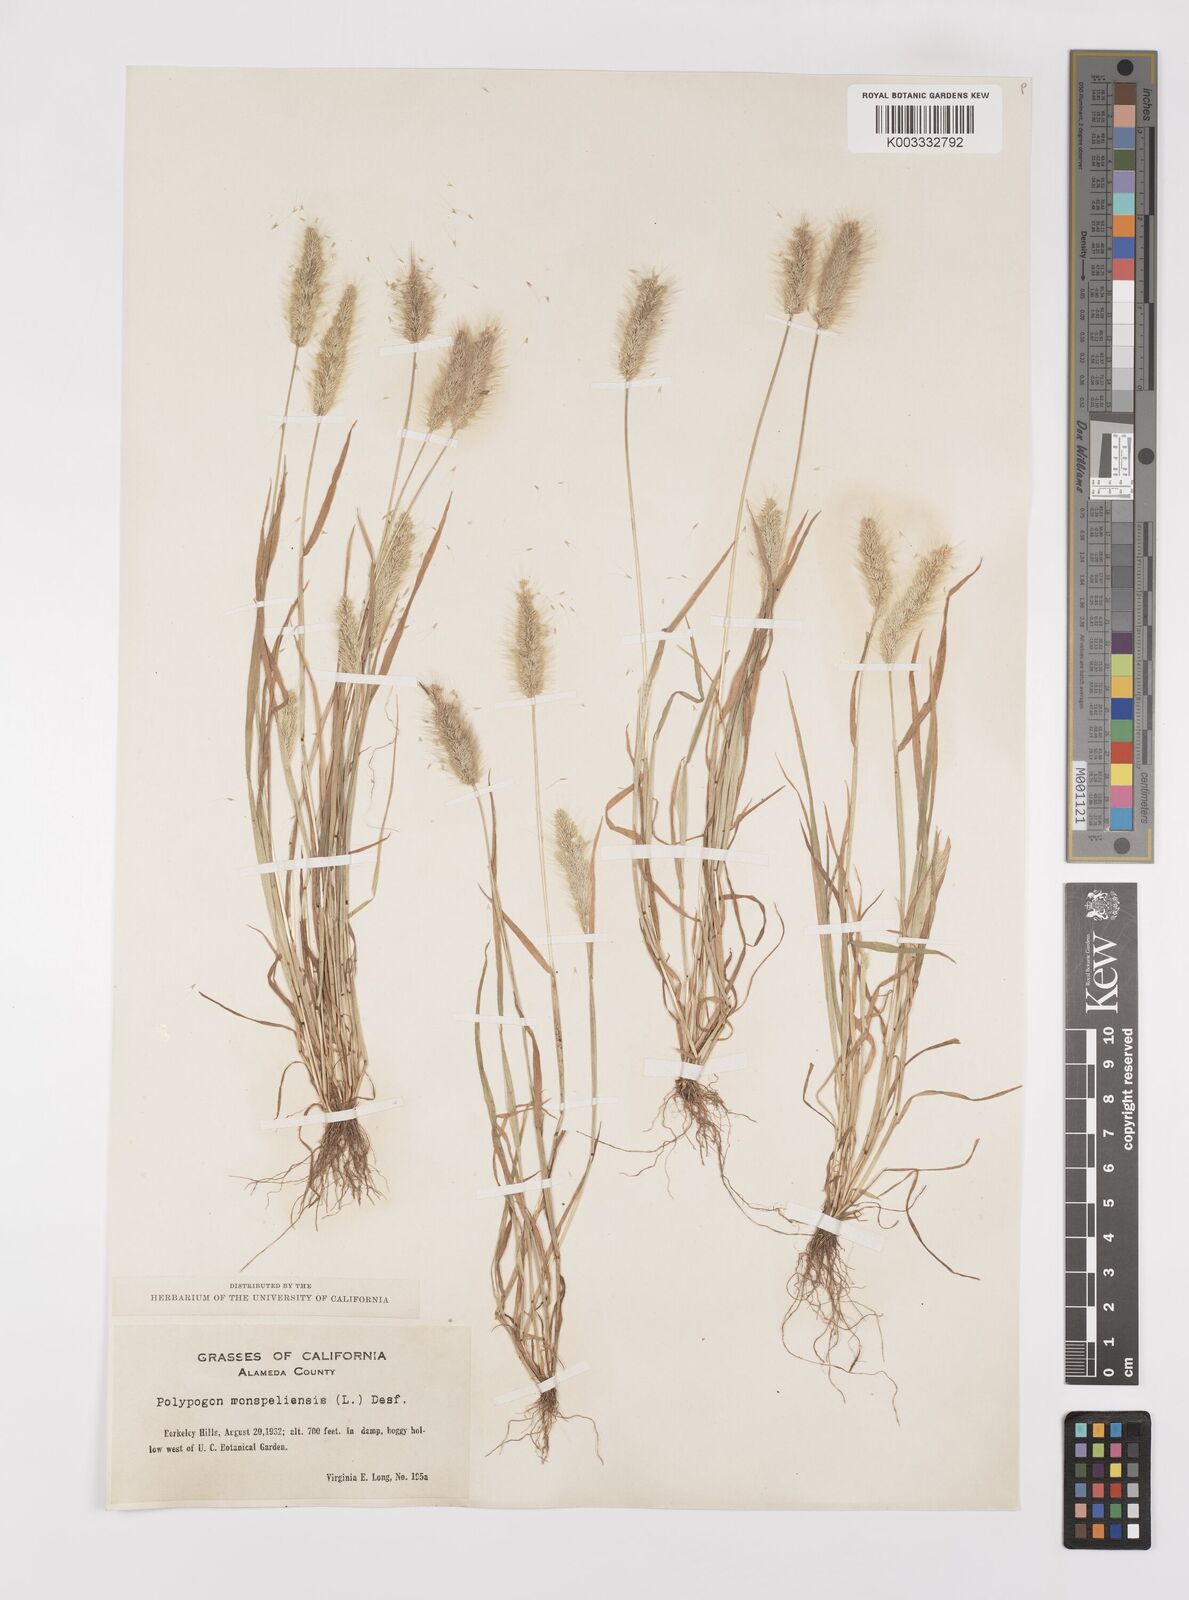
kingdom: Plantae
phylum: Tracheophyta
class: Liliopsida
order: Poales
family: Poaceae
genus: Polypogon
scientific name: Polypogon monspeliensis
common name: Annual rabbitsfoot grass
